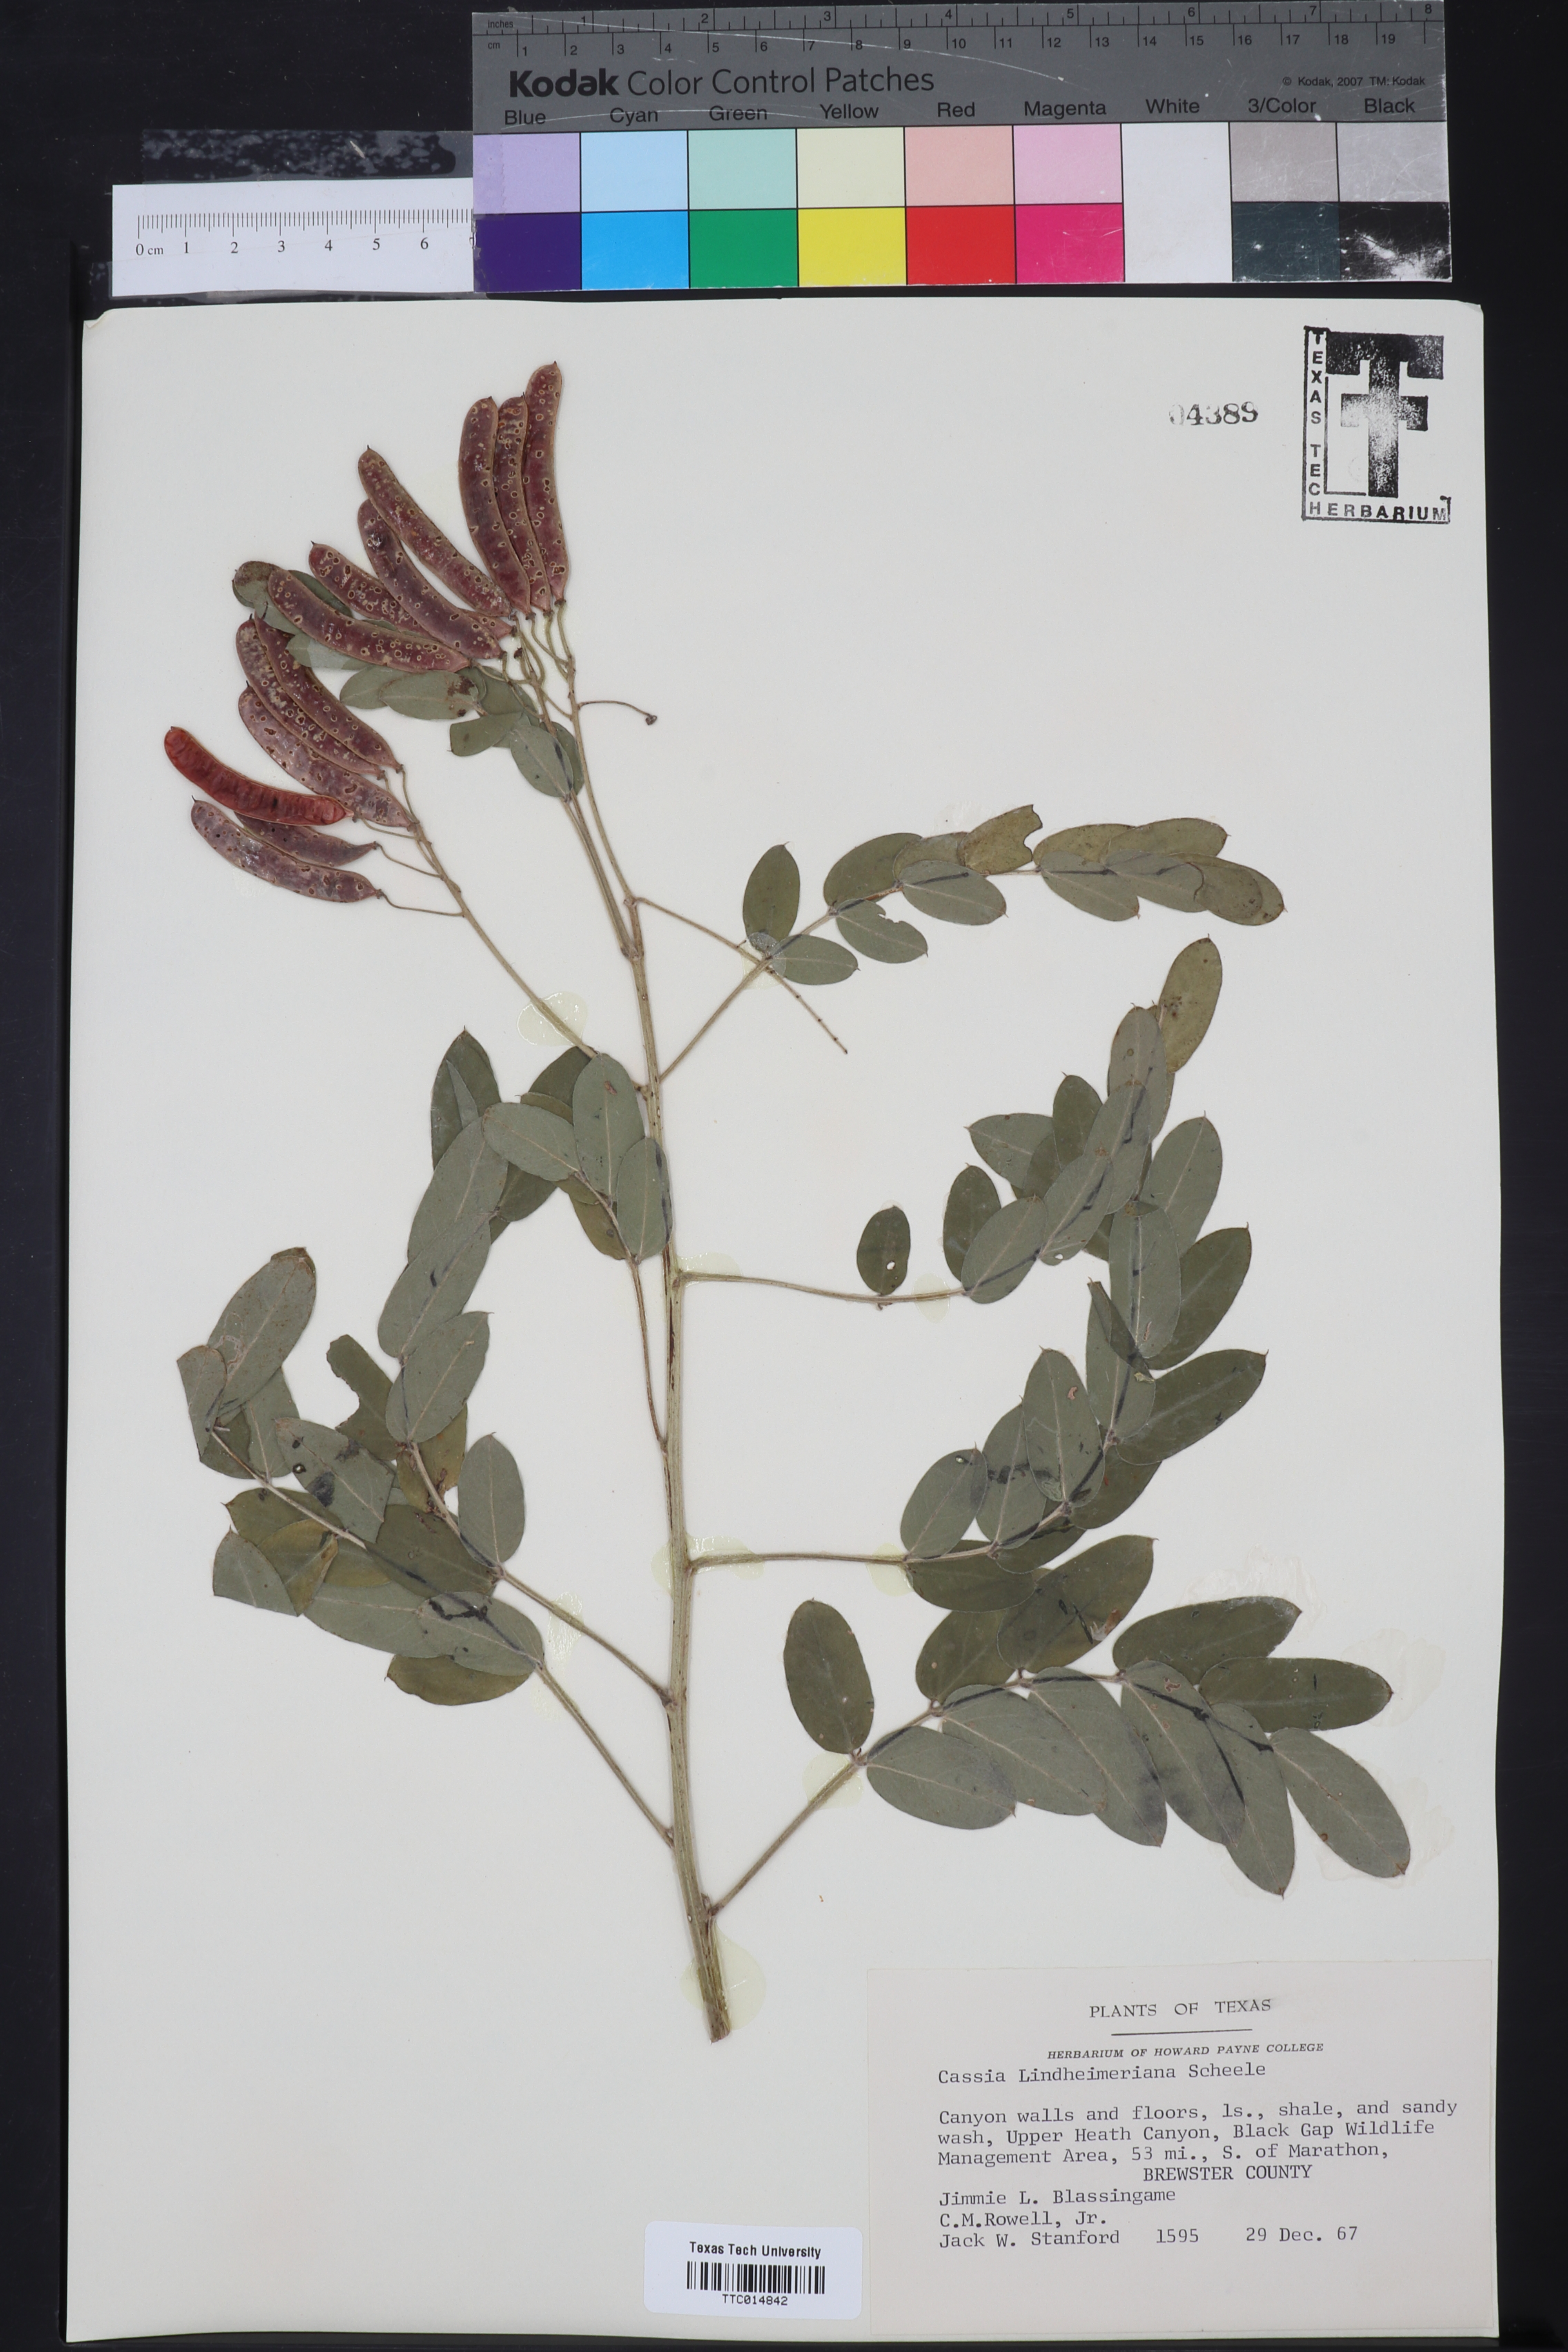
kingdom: Plantae
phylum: Tracheophyta
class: Magnoliopsida
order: Fabales
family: Fabaceae
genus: Senna
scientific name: Senna lindheimeriana
